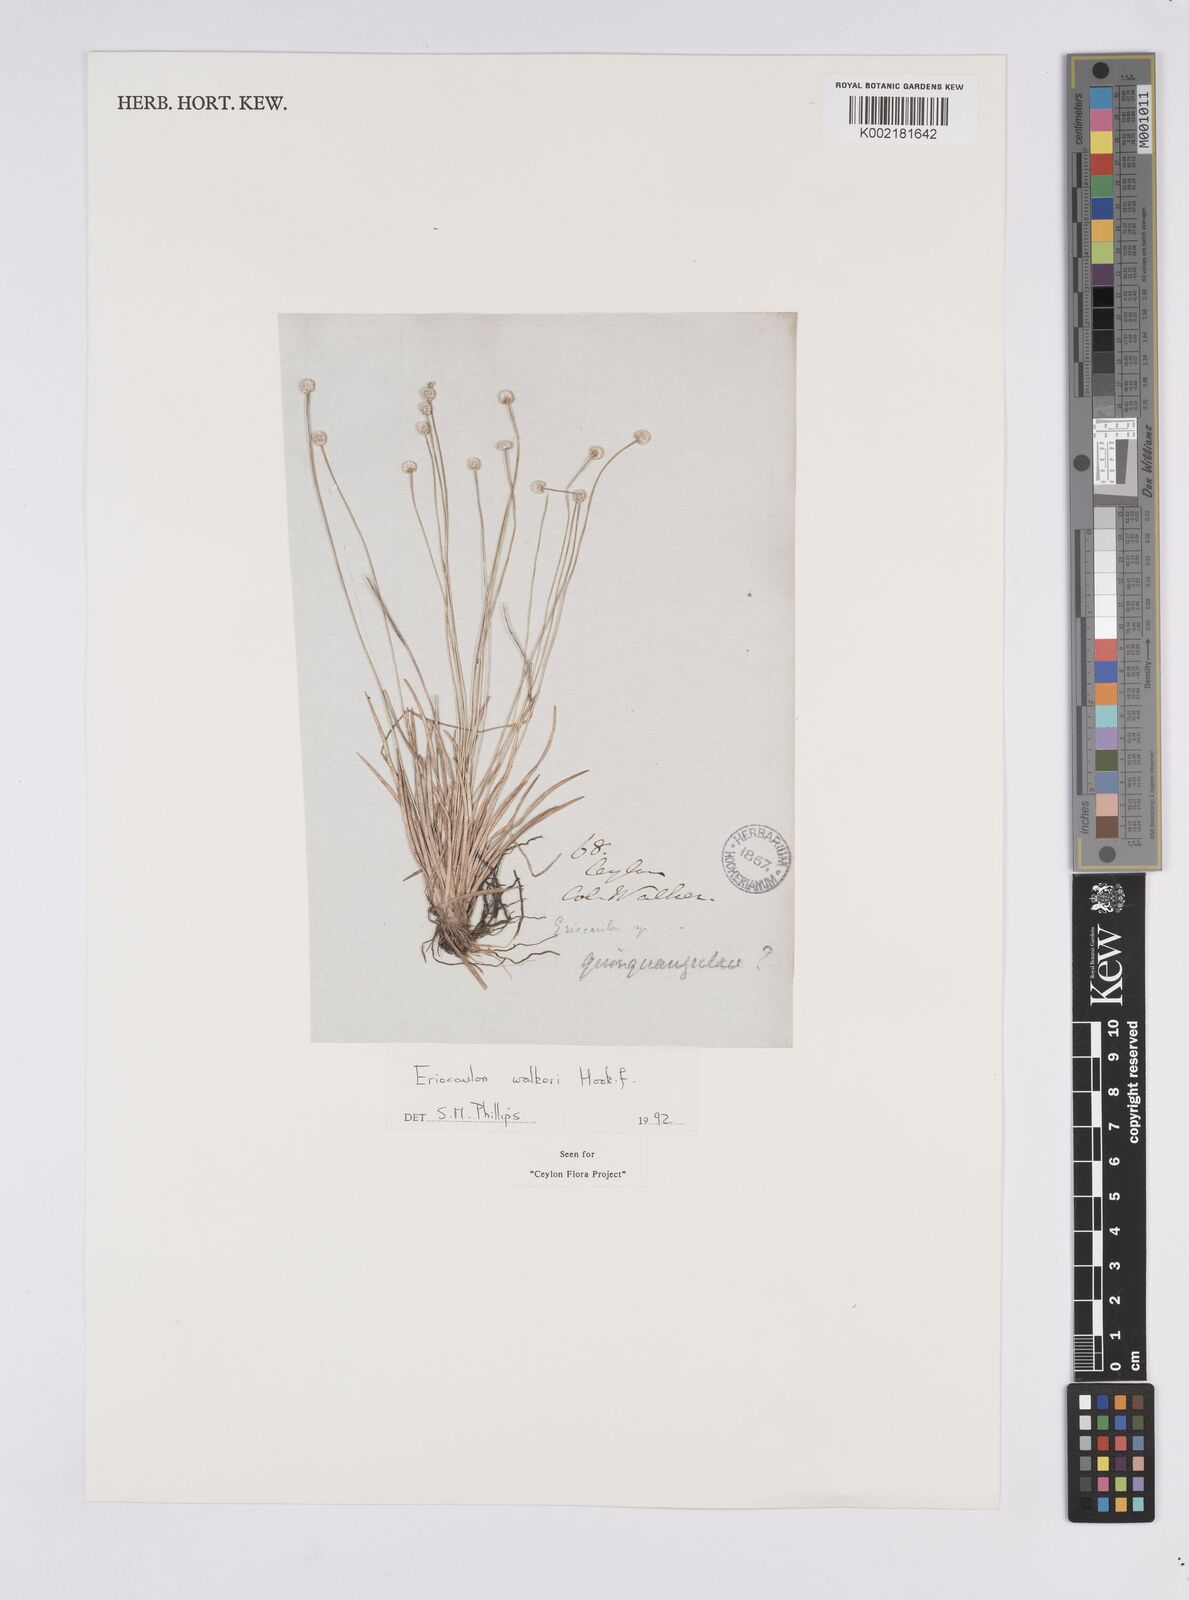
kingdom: Plantae
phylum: Tracheophyta
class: Liliopsida
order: Poales
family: Eriocaulaceae
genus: Eriocaulon
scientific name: Eriocaulon walkeri
